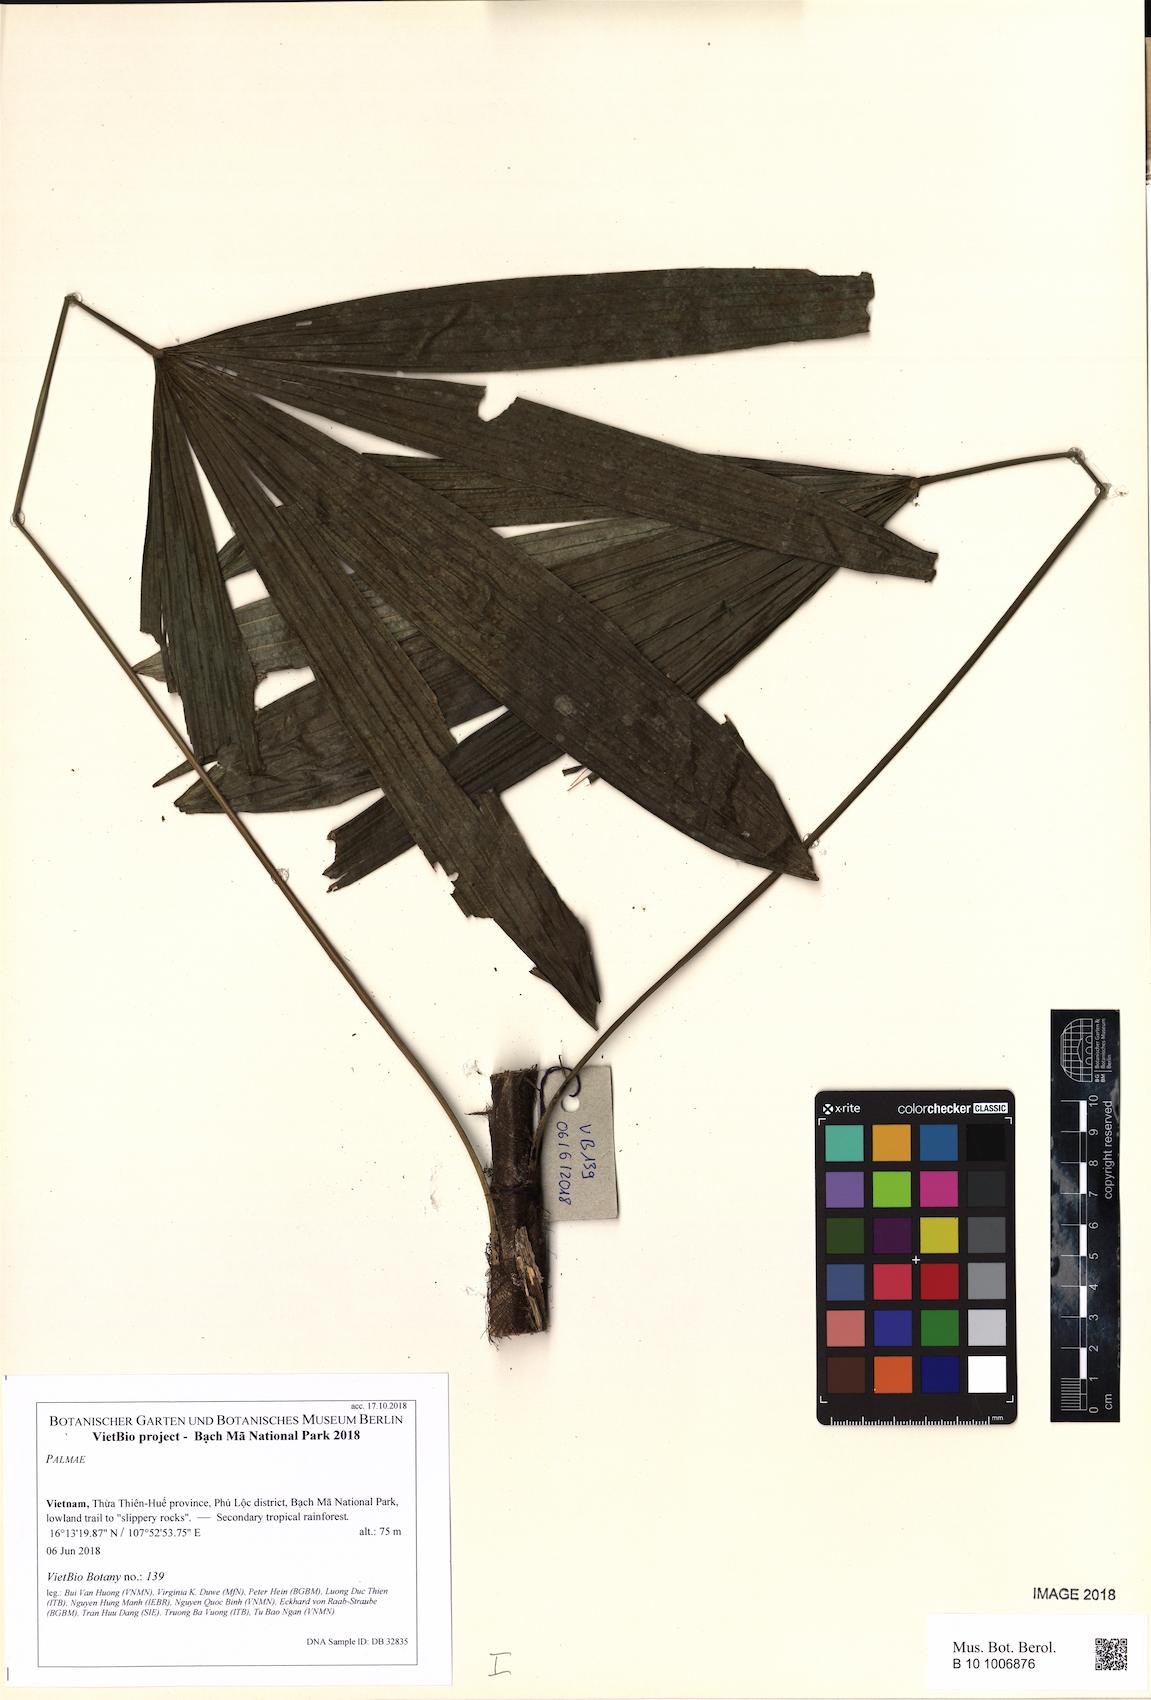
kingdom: Plantae
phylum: Tracheophyta
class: Liliopsida
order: Arecales
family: Arecaceae
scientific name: Arecaceae
